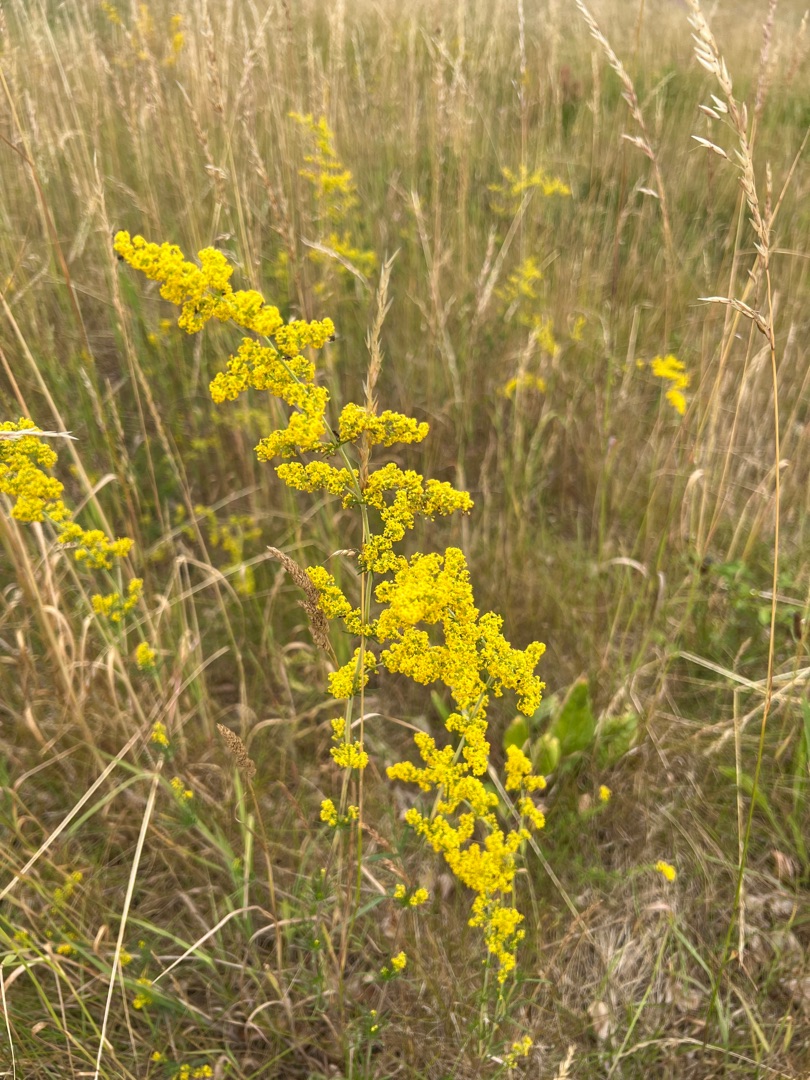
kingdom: Plantae
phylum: Tracheophyta
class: Magnoliopsida
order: Gentianales
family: Rubiaceae
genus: Galium
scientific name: Galium verum
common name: Gul snerre
